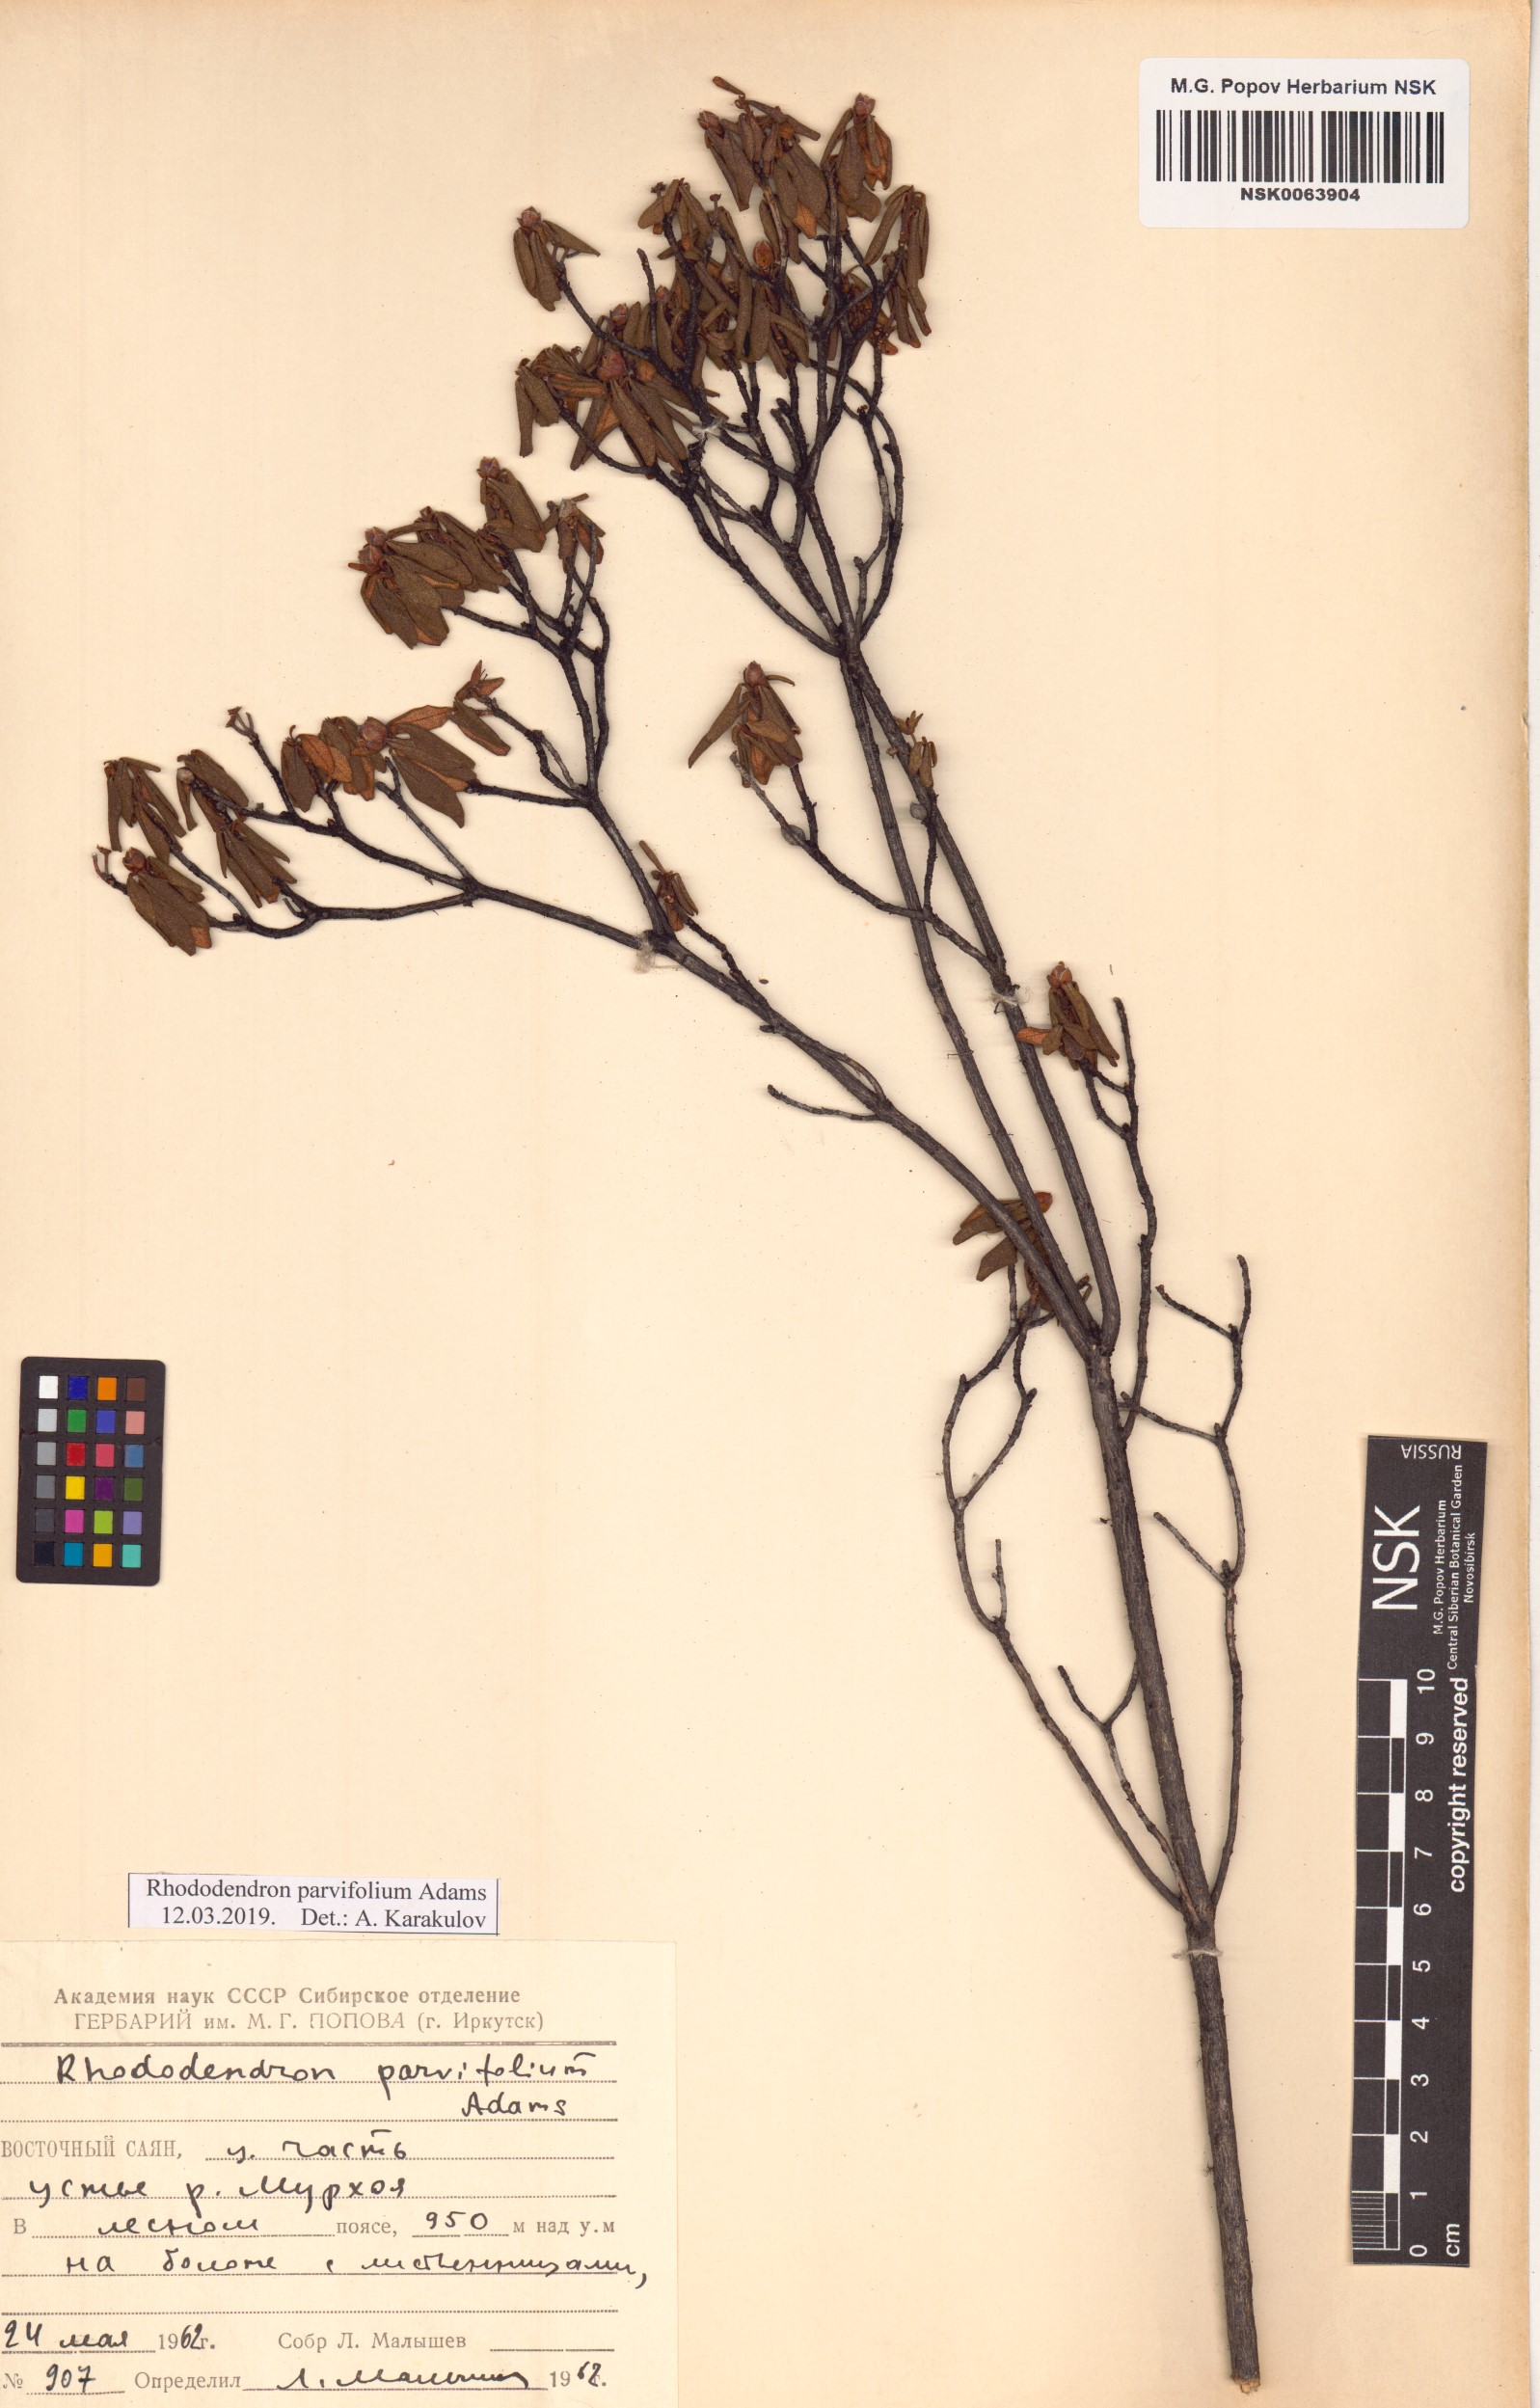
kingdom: Plantae
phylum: Tracheophyta
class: Magnoliopsida
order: Ericales
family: Ericaceae
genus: Rhododendron
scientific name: Rhododendron parvifolium
